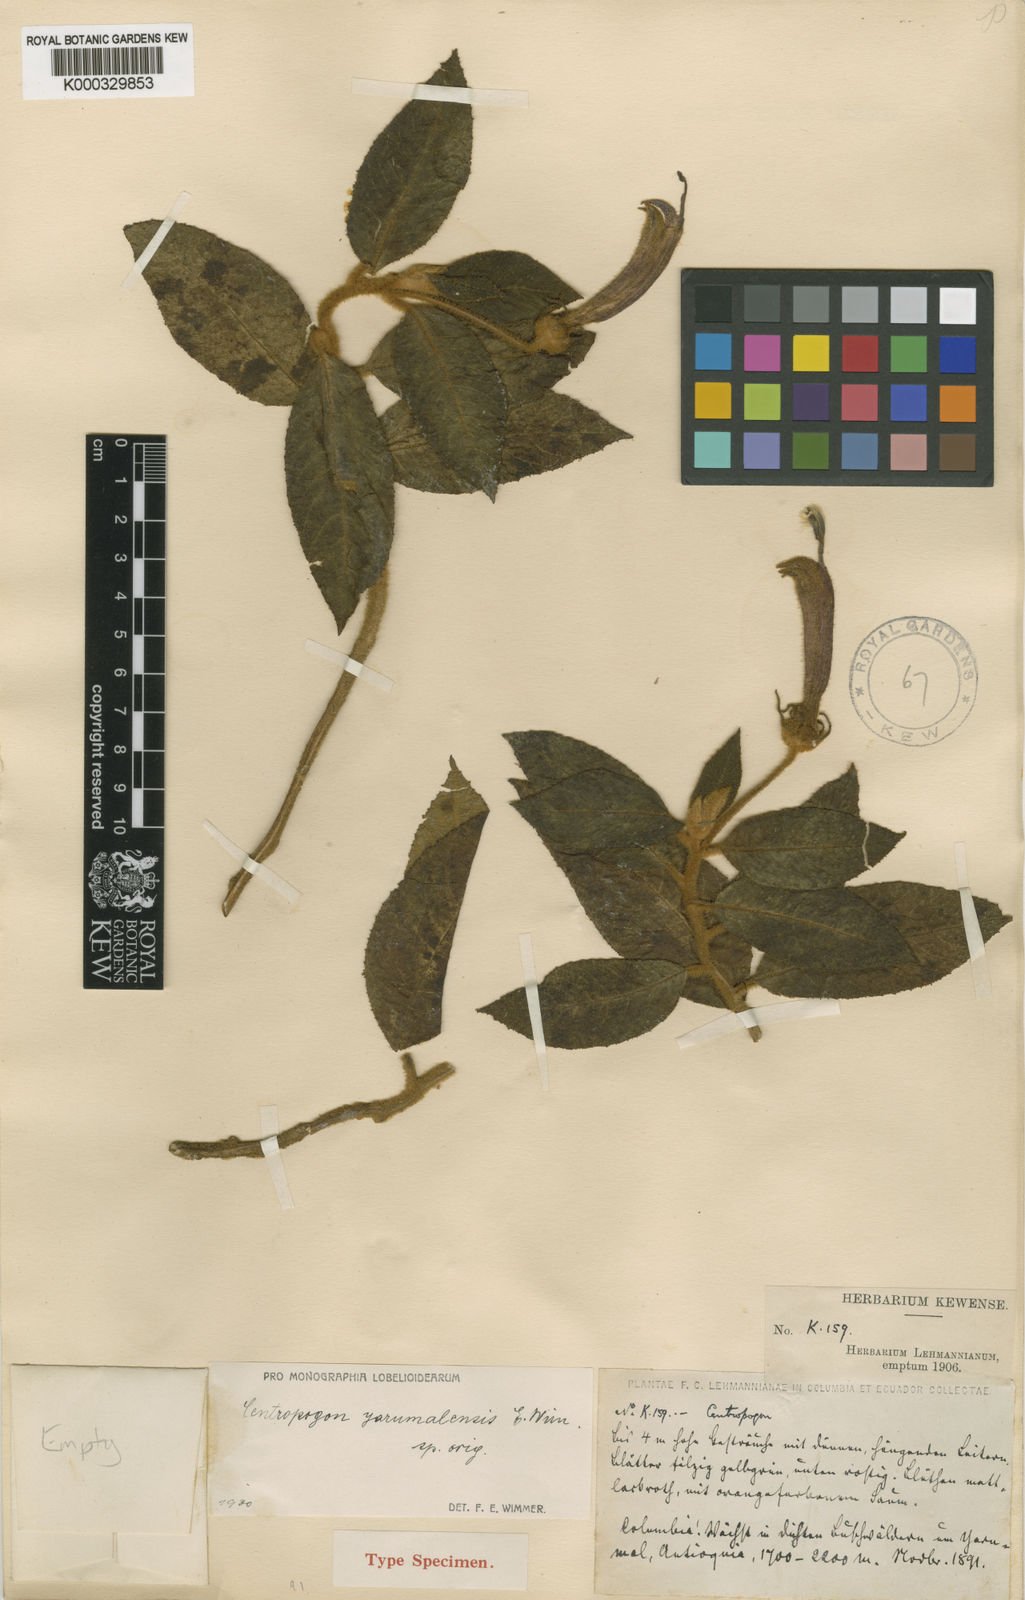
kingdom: Plantae
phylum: Tracheophyta
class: Magnoliopsida
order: Asterales
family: Campanulaceae
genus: Centropogon
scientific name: Centropogon yarumalensis
